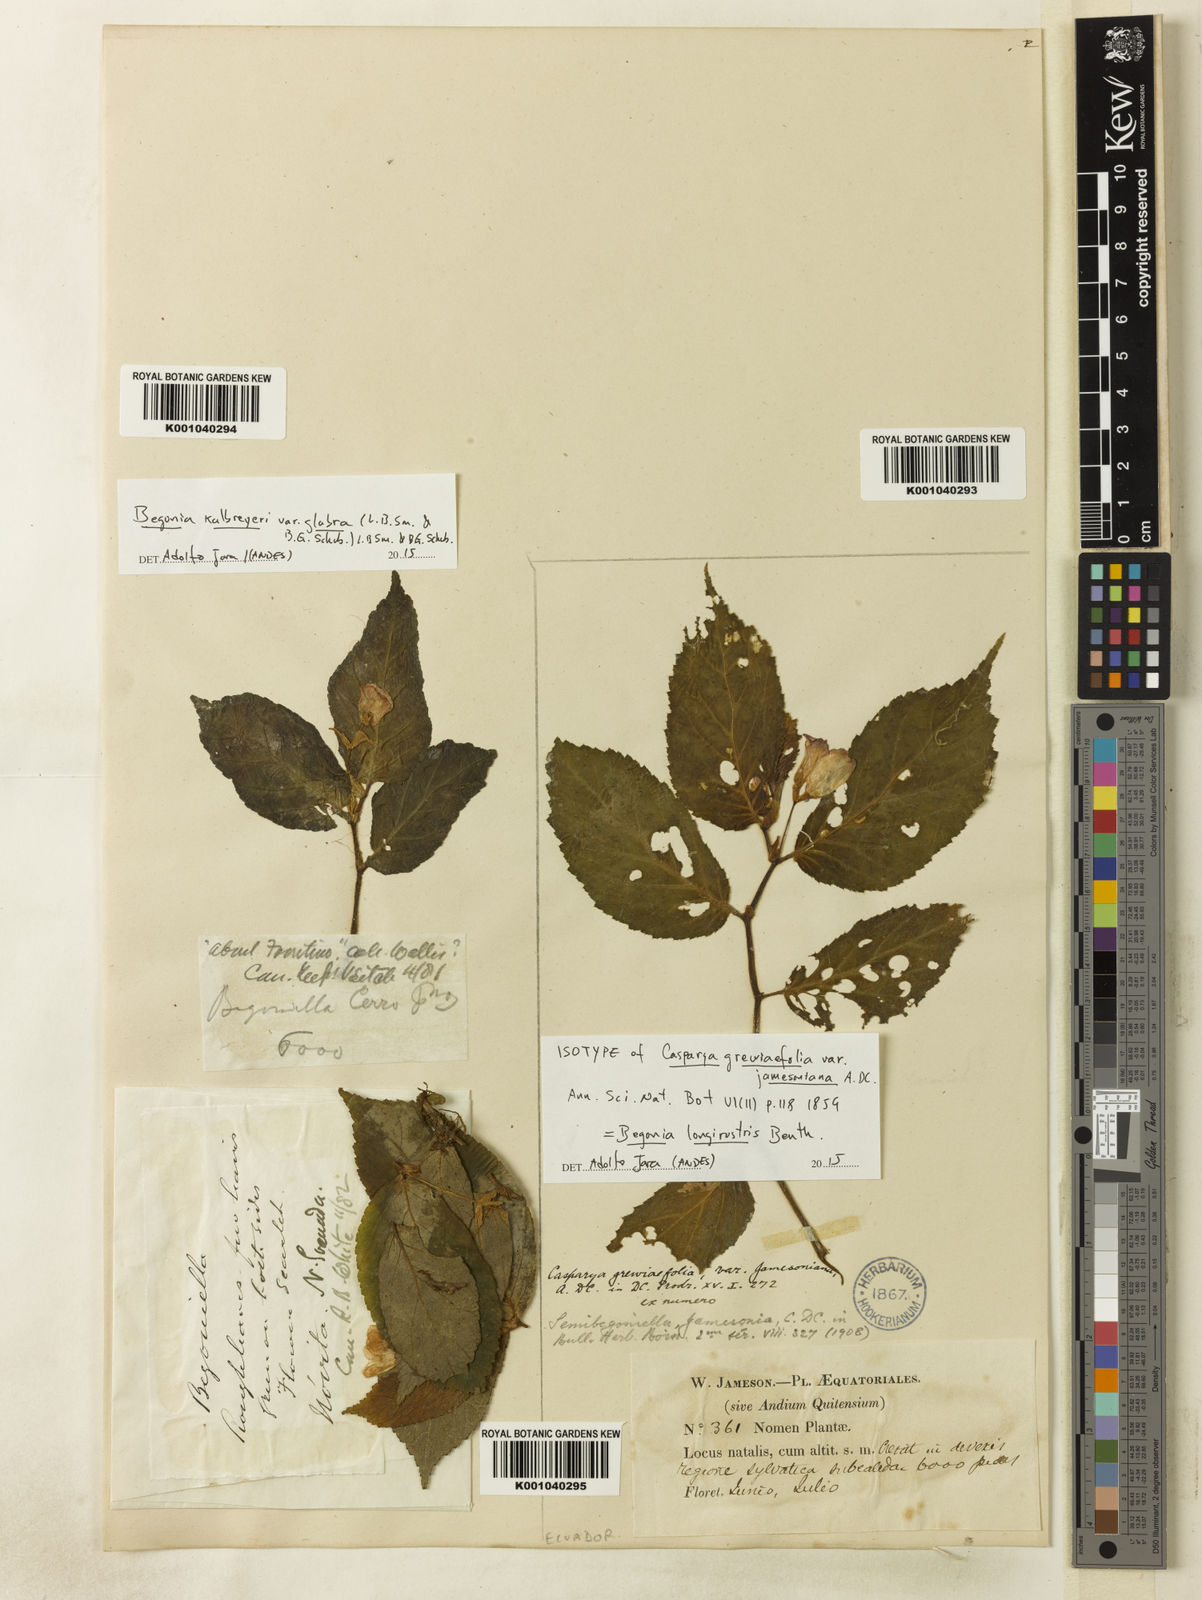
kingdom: Plantae
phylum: Tracheophyta
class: Magnoliopsida
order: Cucurbitales
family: Begoniaceae
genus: Begonia
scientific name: Begonia longirostris
